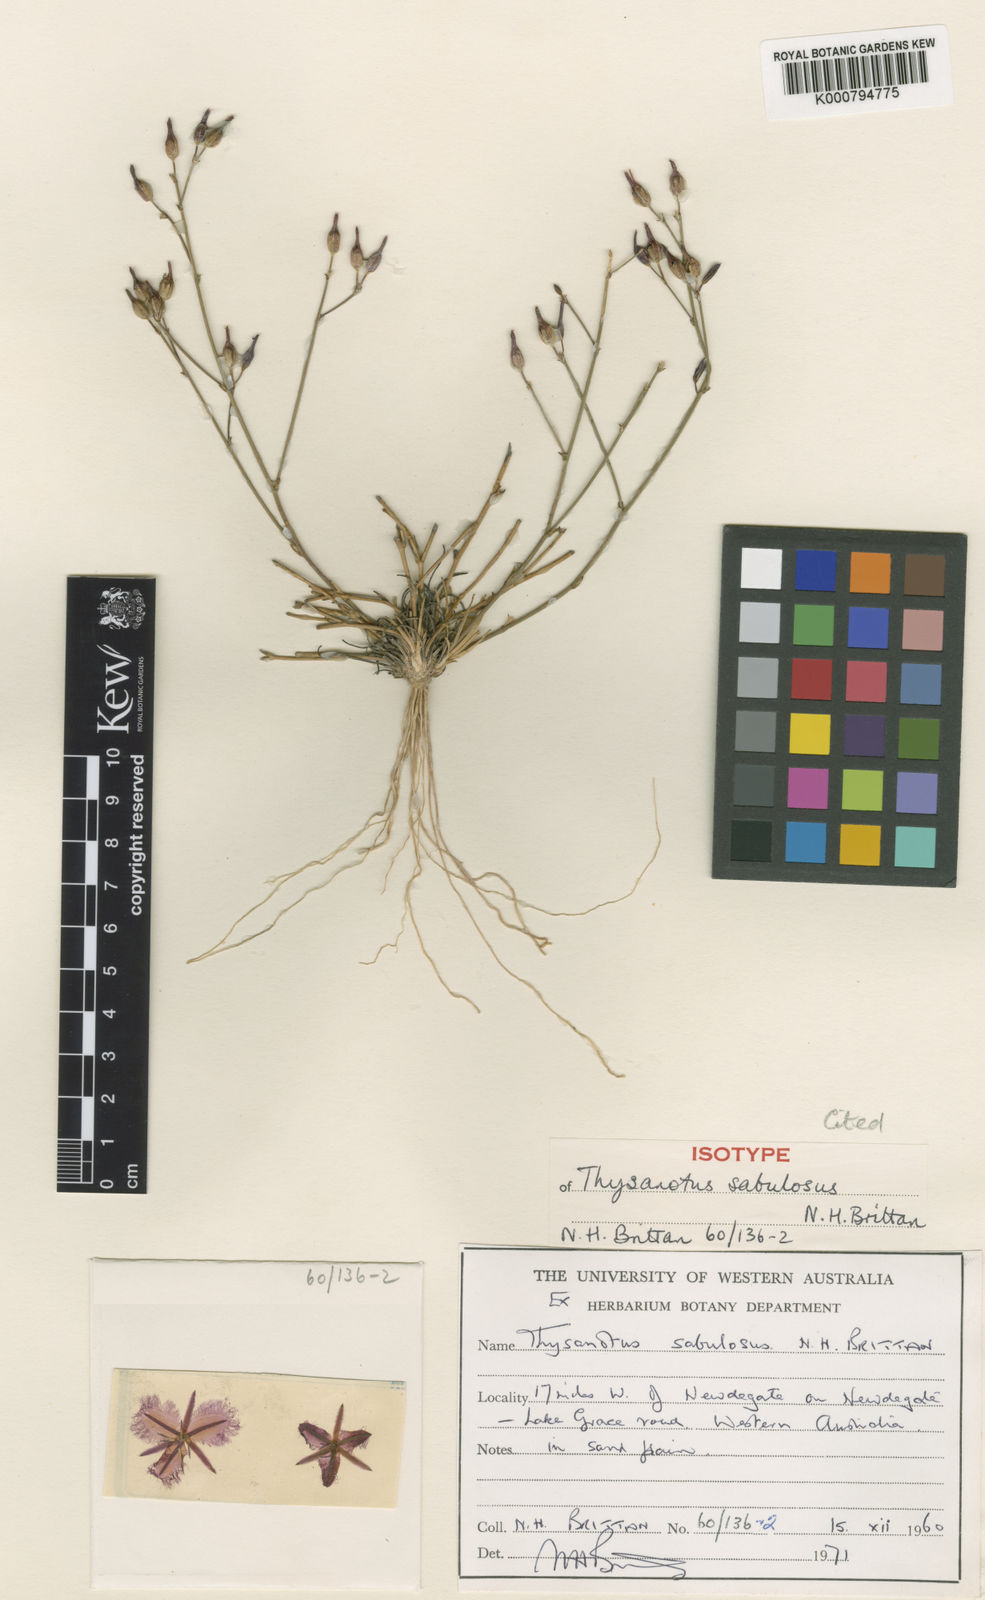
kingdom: Plantae
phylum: Tracheophyta
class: Liliopsida
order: Asparagales
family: Asparagaceae
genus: Thysanotus
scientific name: Thysanotus sabulosus
